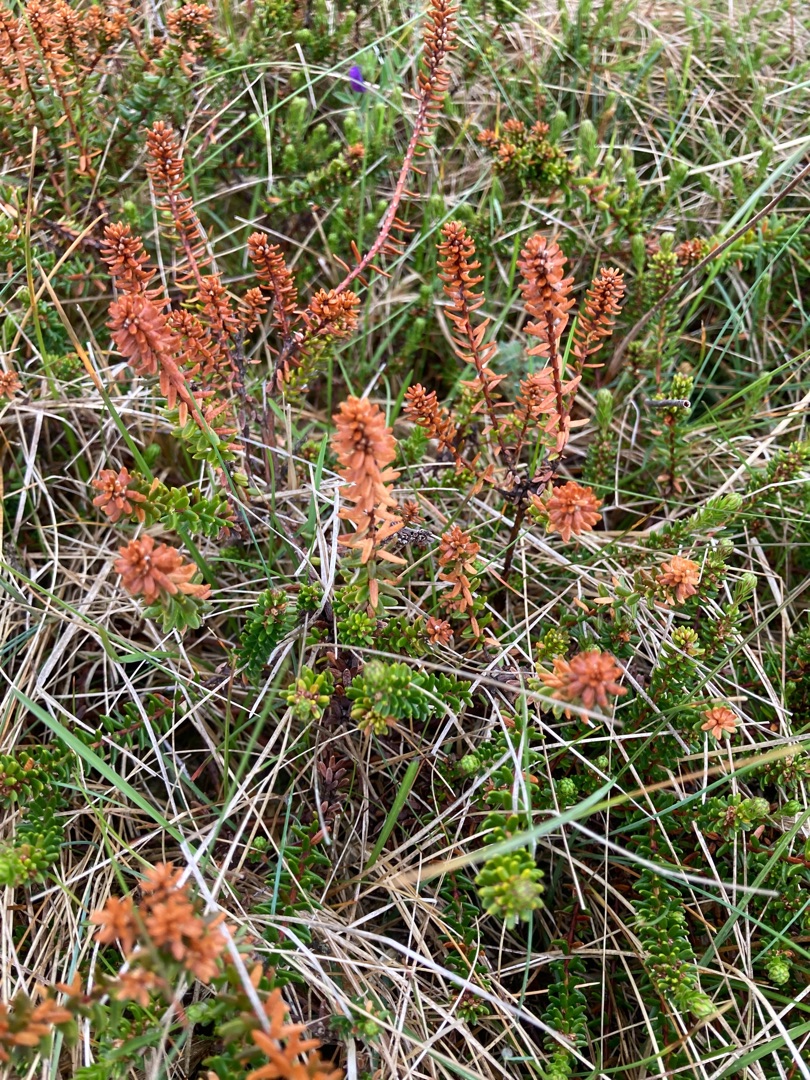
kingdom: Plantae
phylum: Tracheophyta
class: Magnoliopsida
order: Ericales
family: Ericaceae
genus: Empetrum
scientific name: Empetrum nigrum
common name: Revling
